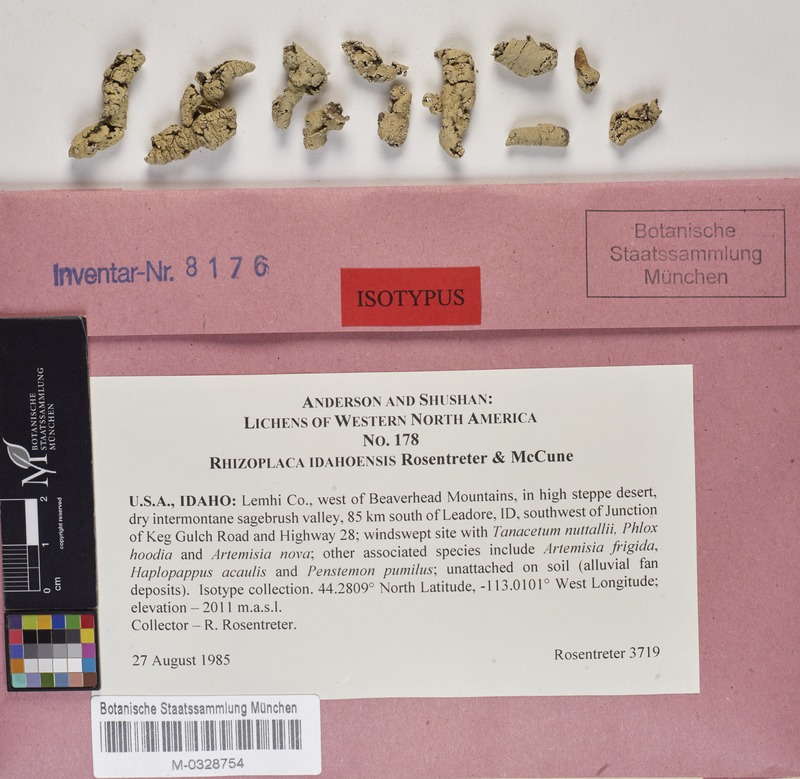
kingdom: Fungi
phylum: Ascomycota
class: Lecanoromycetes
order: Lecanorales
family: Lecanoraceae
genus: Rhizoplaca
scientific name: Rhizoplaca idahoensis
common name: Idaho grouse pellet
